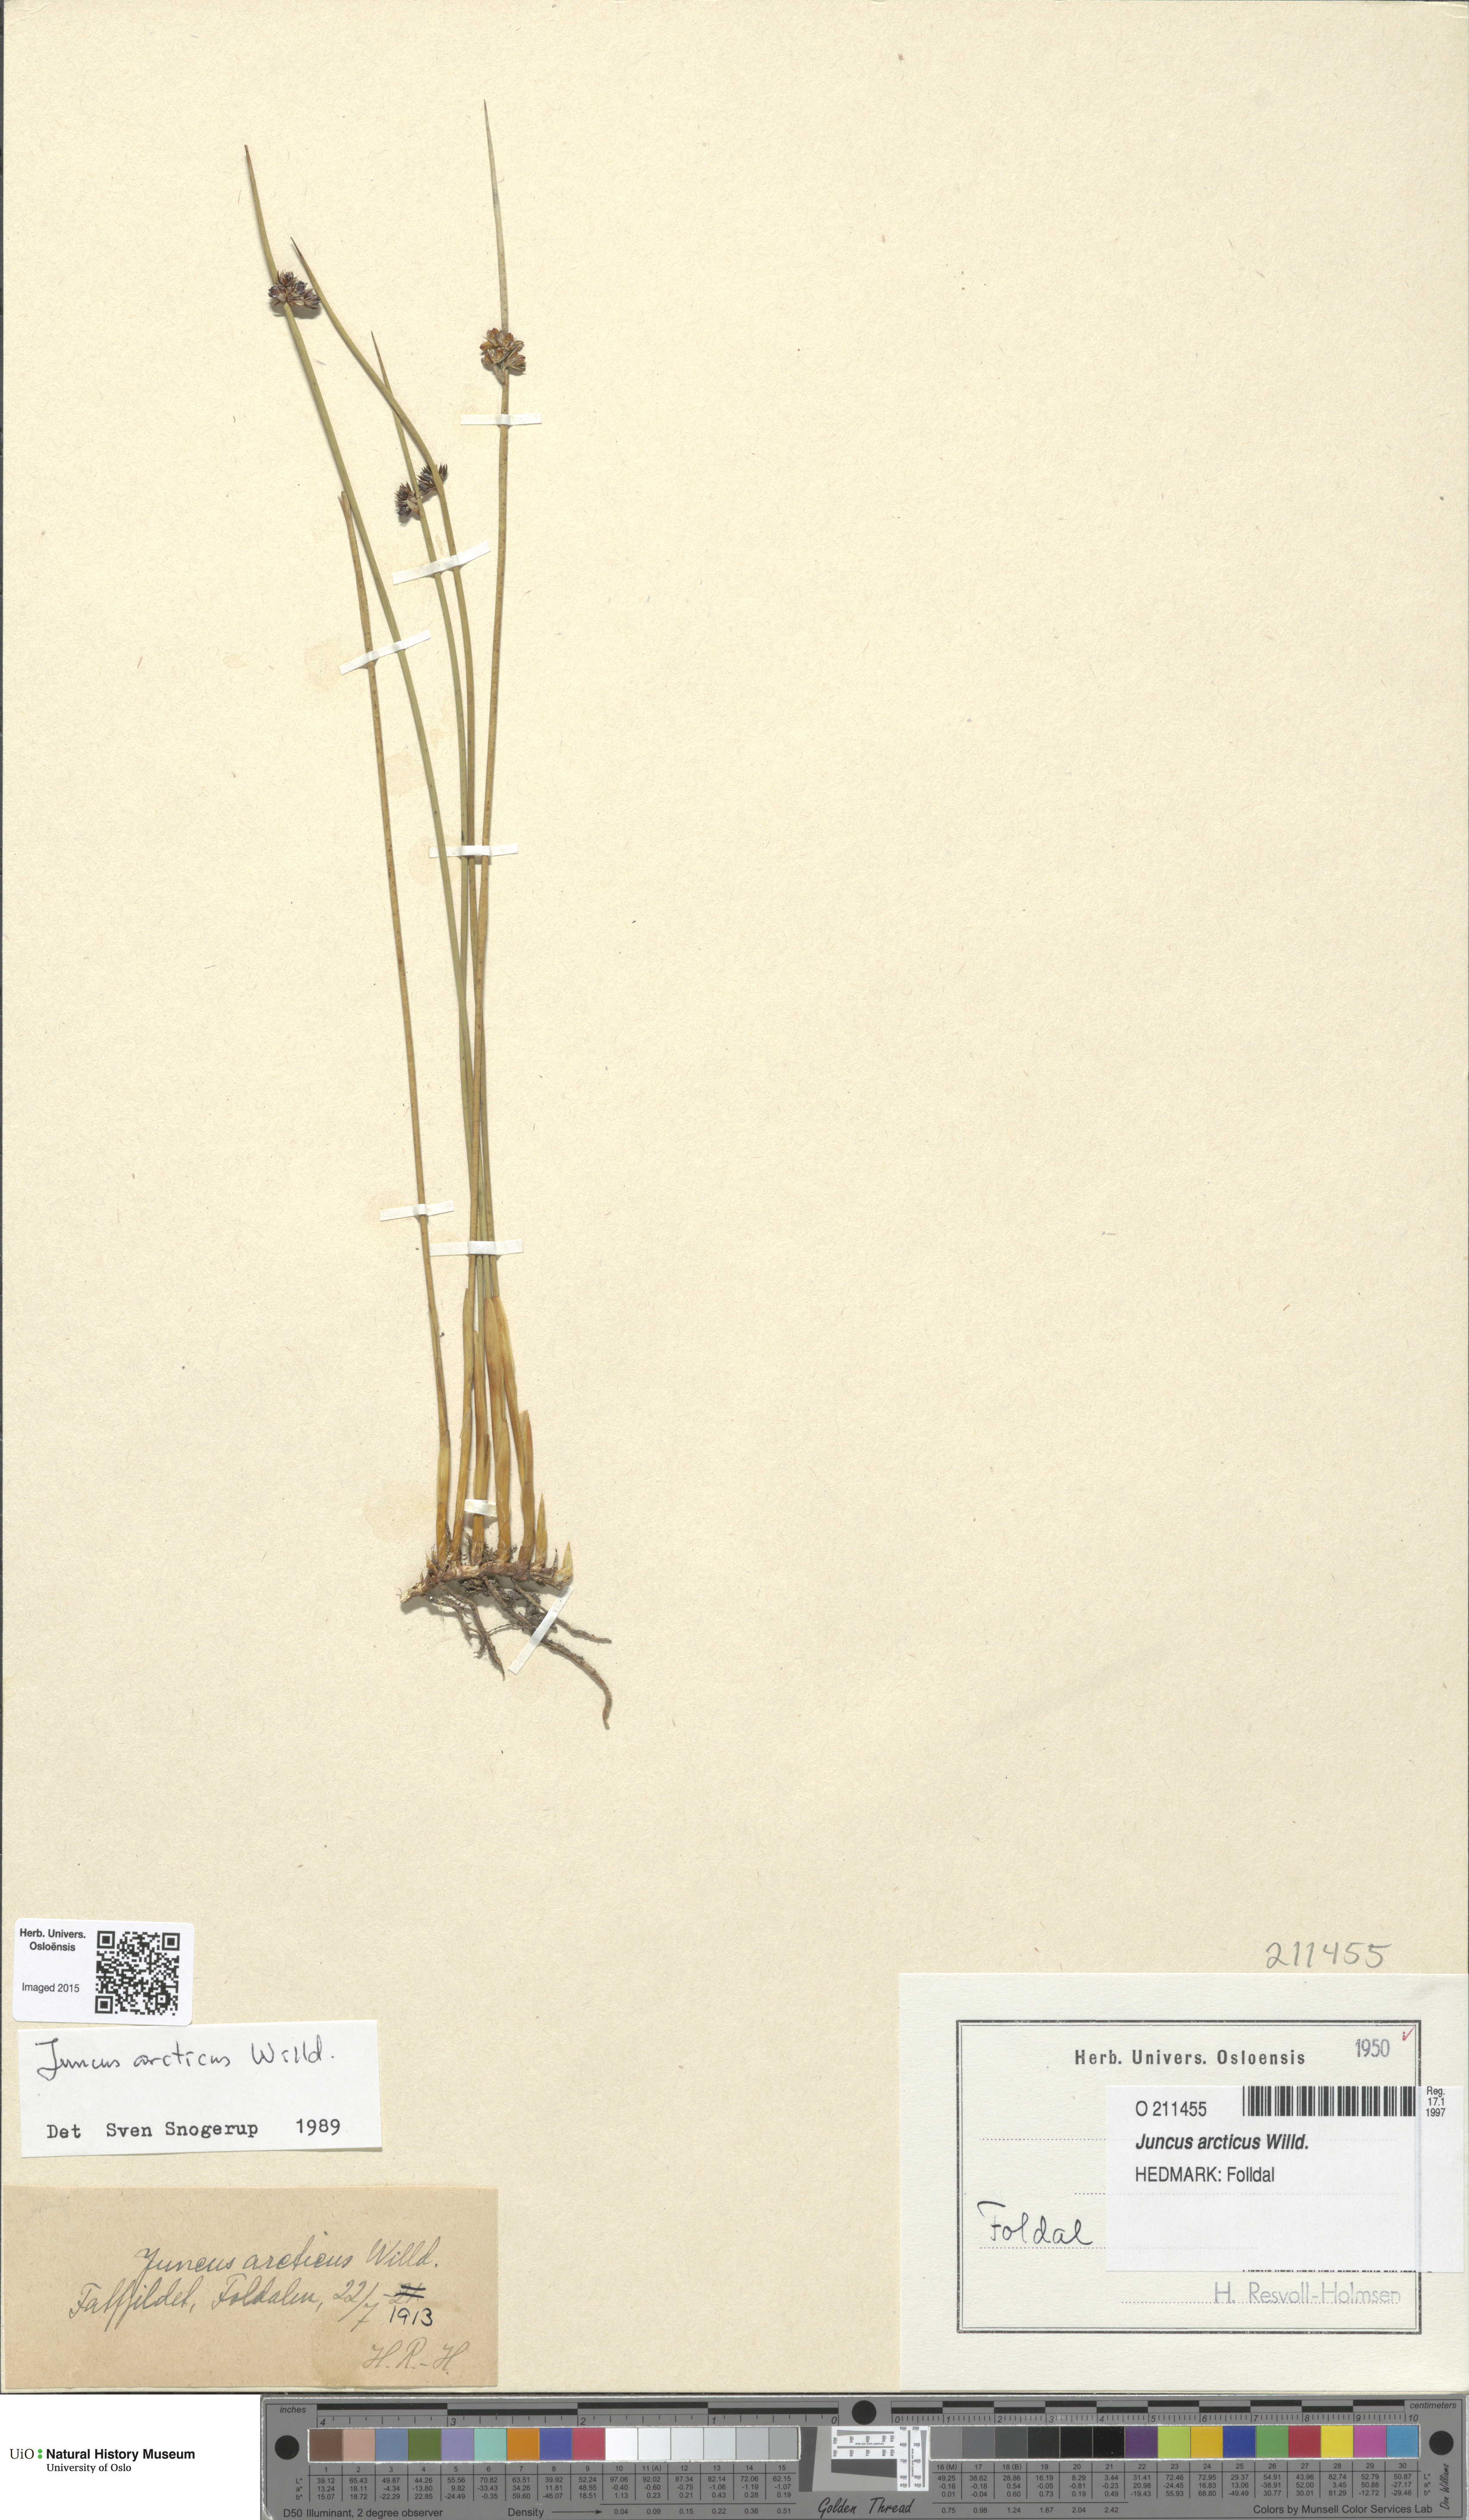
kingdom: Plantae
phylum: Tracheophyta
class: Liliopsida
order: Poales
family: Juncaceae
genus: Juncus
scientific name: Juncus arcticus
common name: Arctic rush
